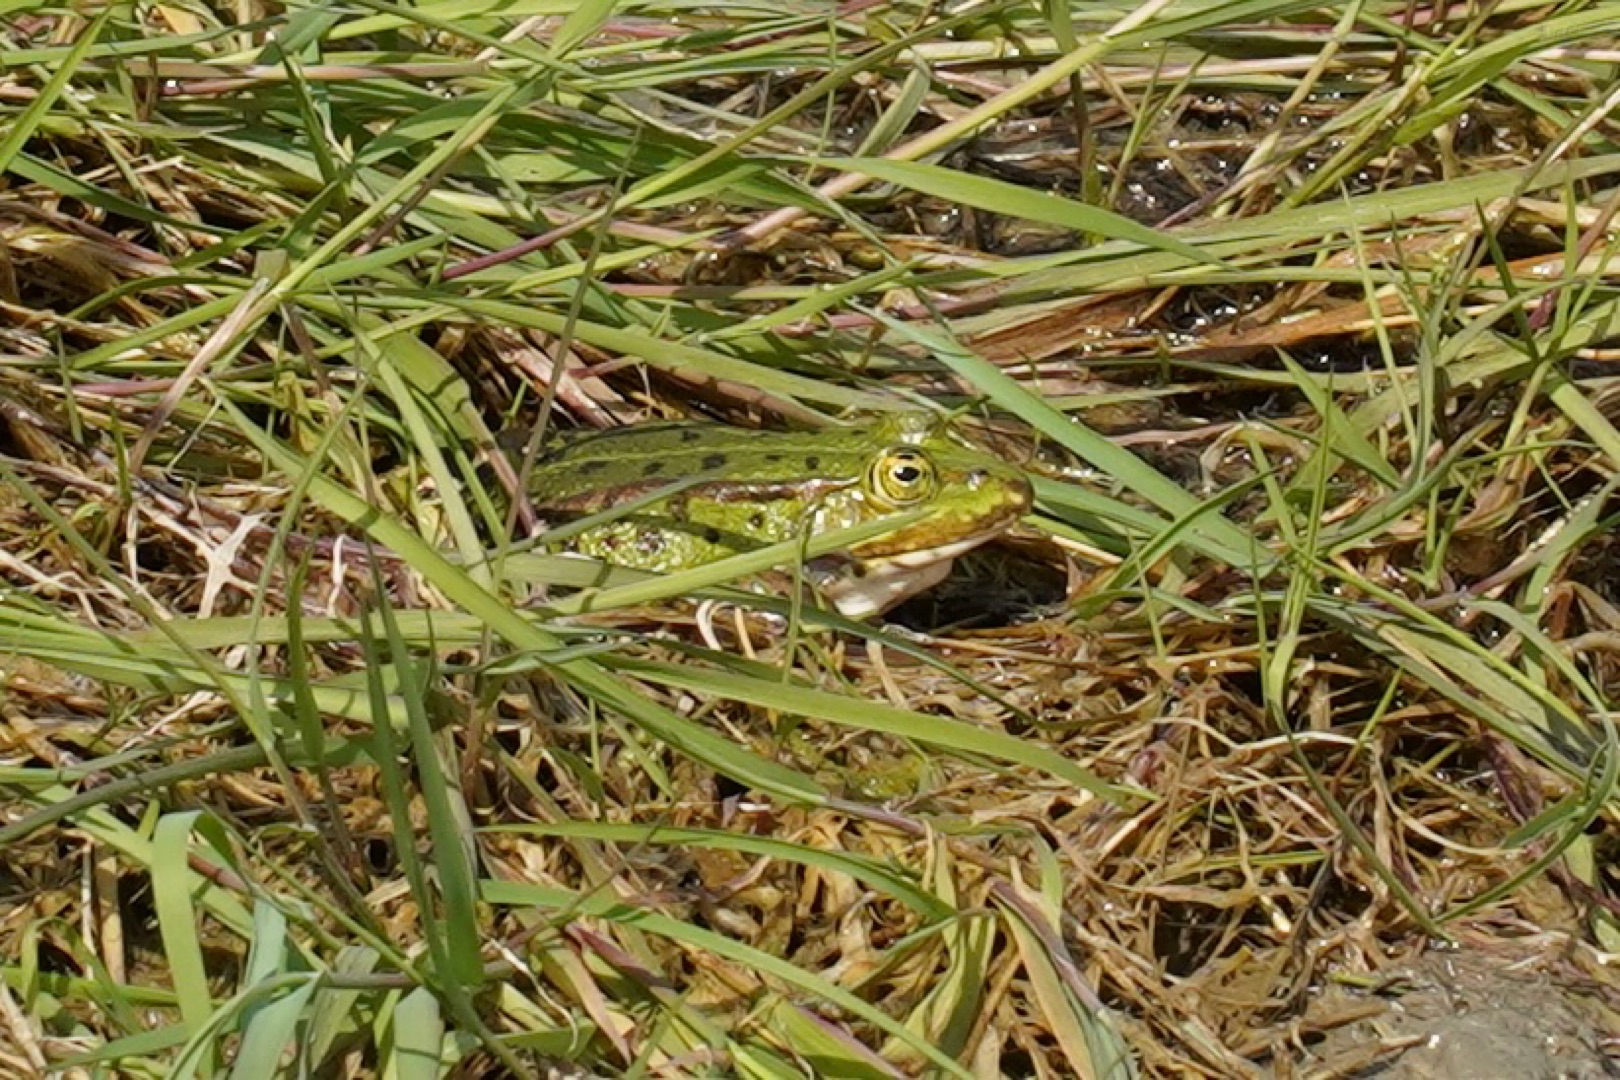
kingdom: Animalia
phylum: Chordata
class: Amphibia
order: Anura
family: Ranidae
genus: Pelophylax
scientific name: Pelophylax lessonae
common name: Grøn frø
